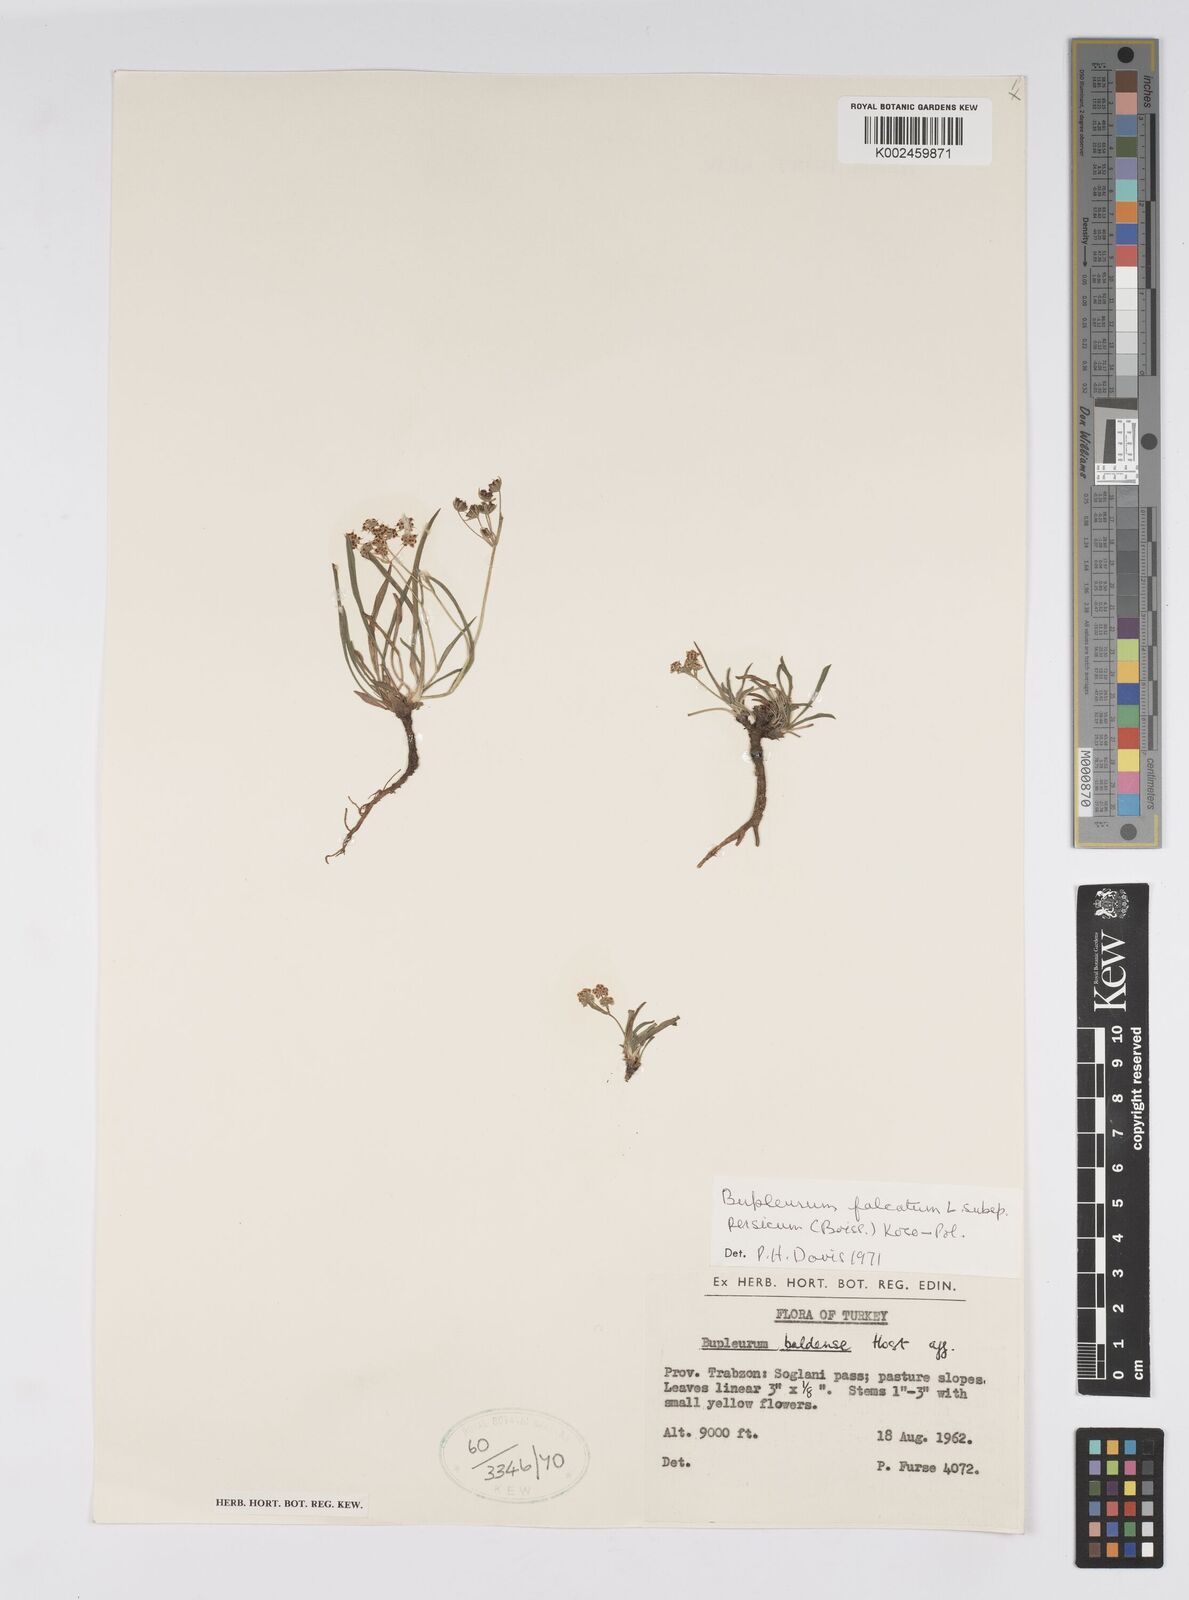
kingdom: Plantae
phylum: Tracheophyta
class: Magnoliopsida
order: Apiales
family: Apiaceae
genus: Bupleurum
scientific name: Bupleurum falcatum
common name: Sickle-leaved hare's-ear
